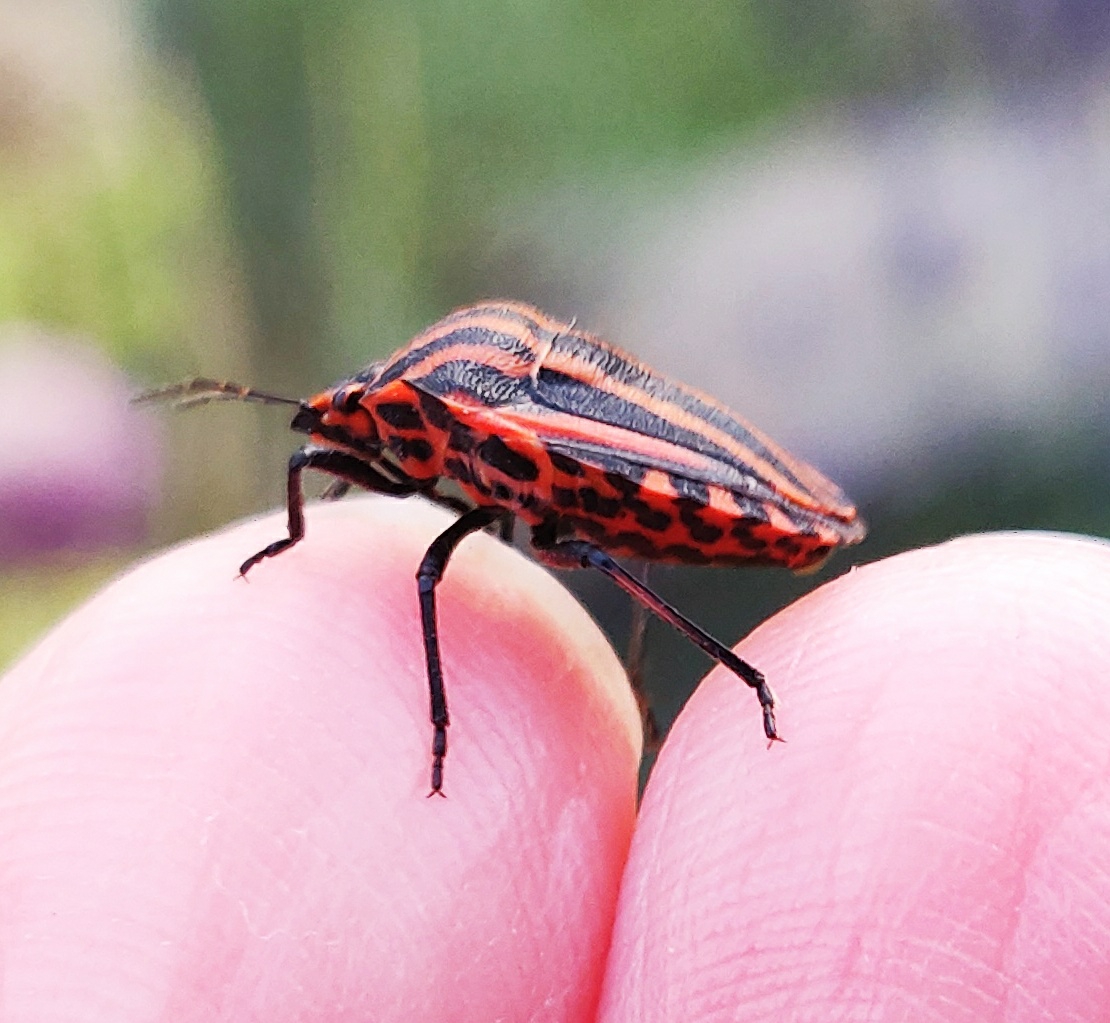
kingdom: Animalia
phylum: Arthropoda
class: Insecta
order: Hemiptera
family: Pentatomidae
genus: Graphosoma
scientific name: Graphosoma italicum
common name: Stribetæge
